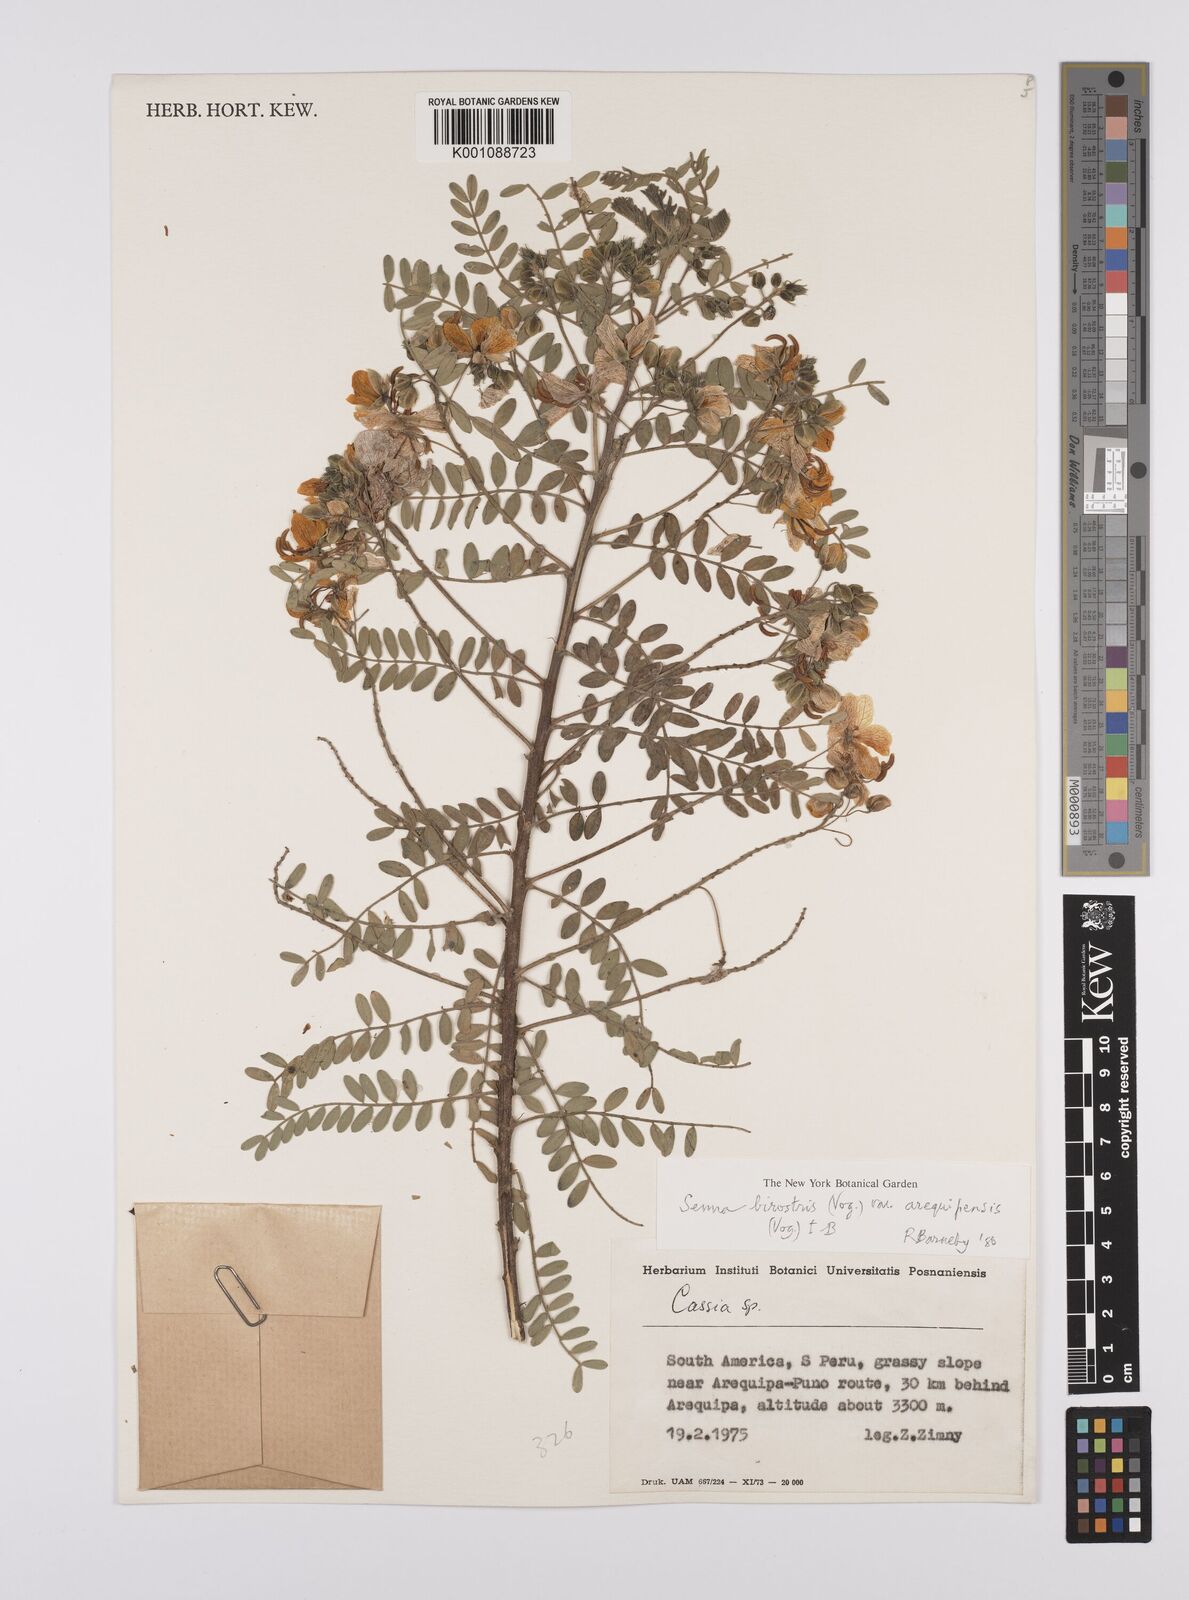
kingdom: Plantae
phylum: Tracheophyta
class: Magnoliopsida
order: Fabales
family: Fabaceae
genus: Senna
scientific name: Senna birostris
